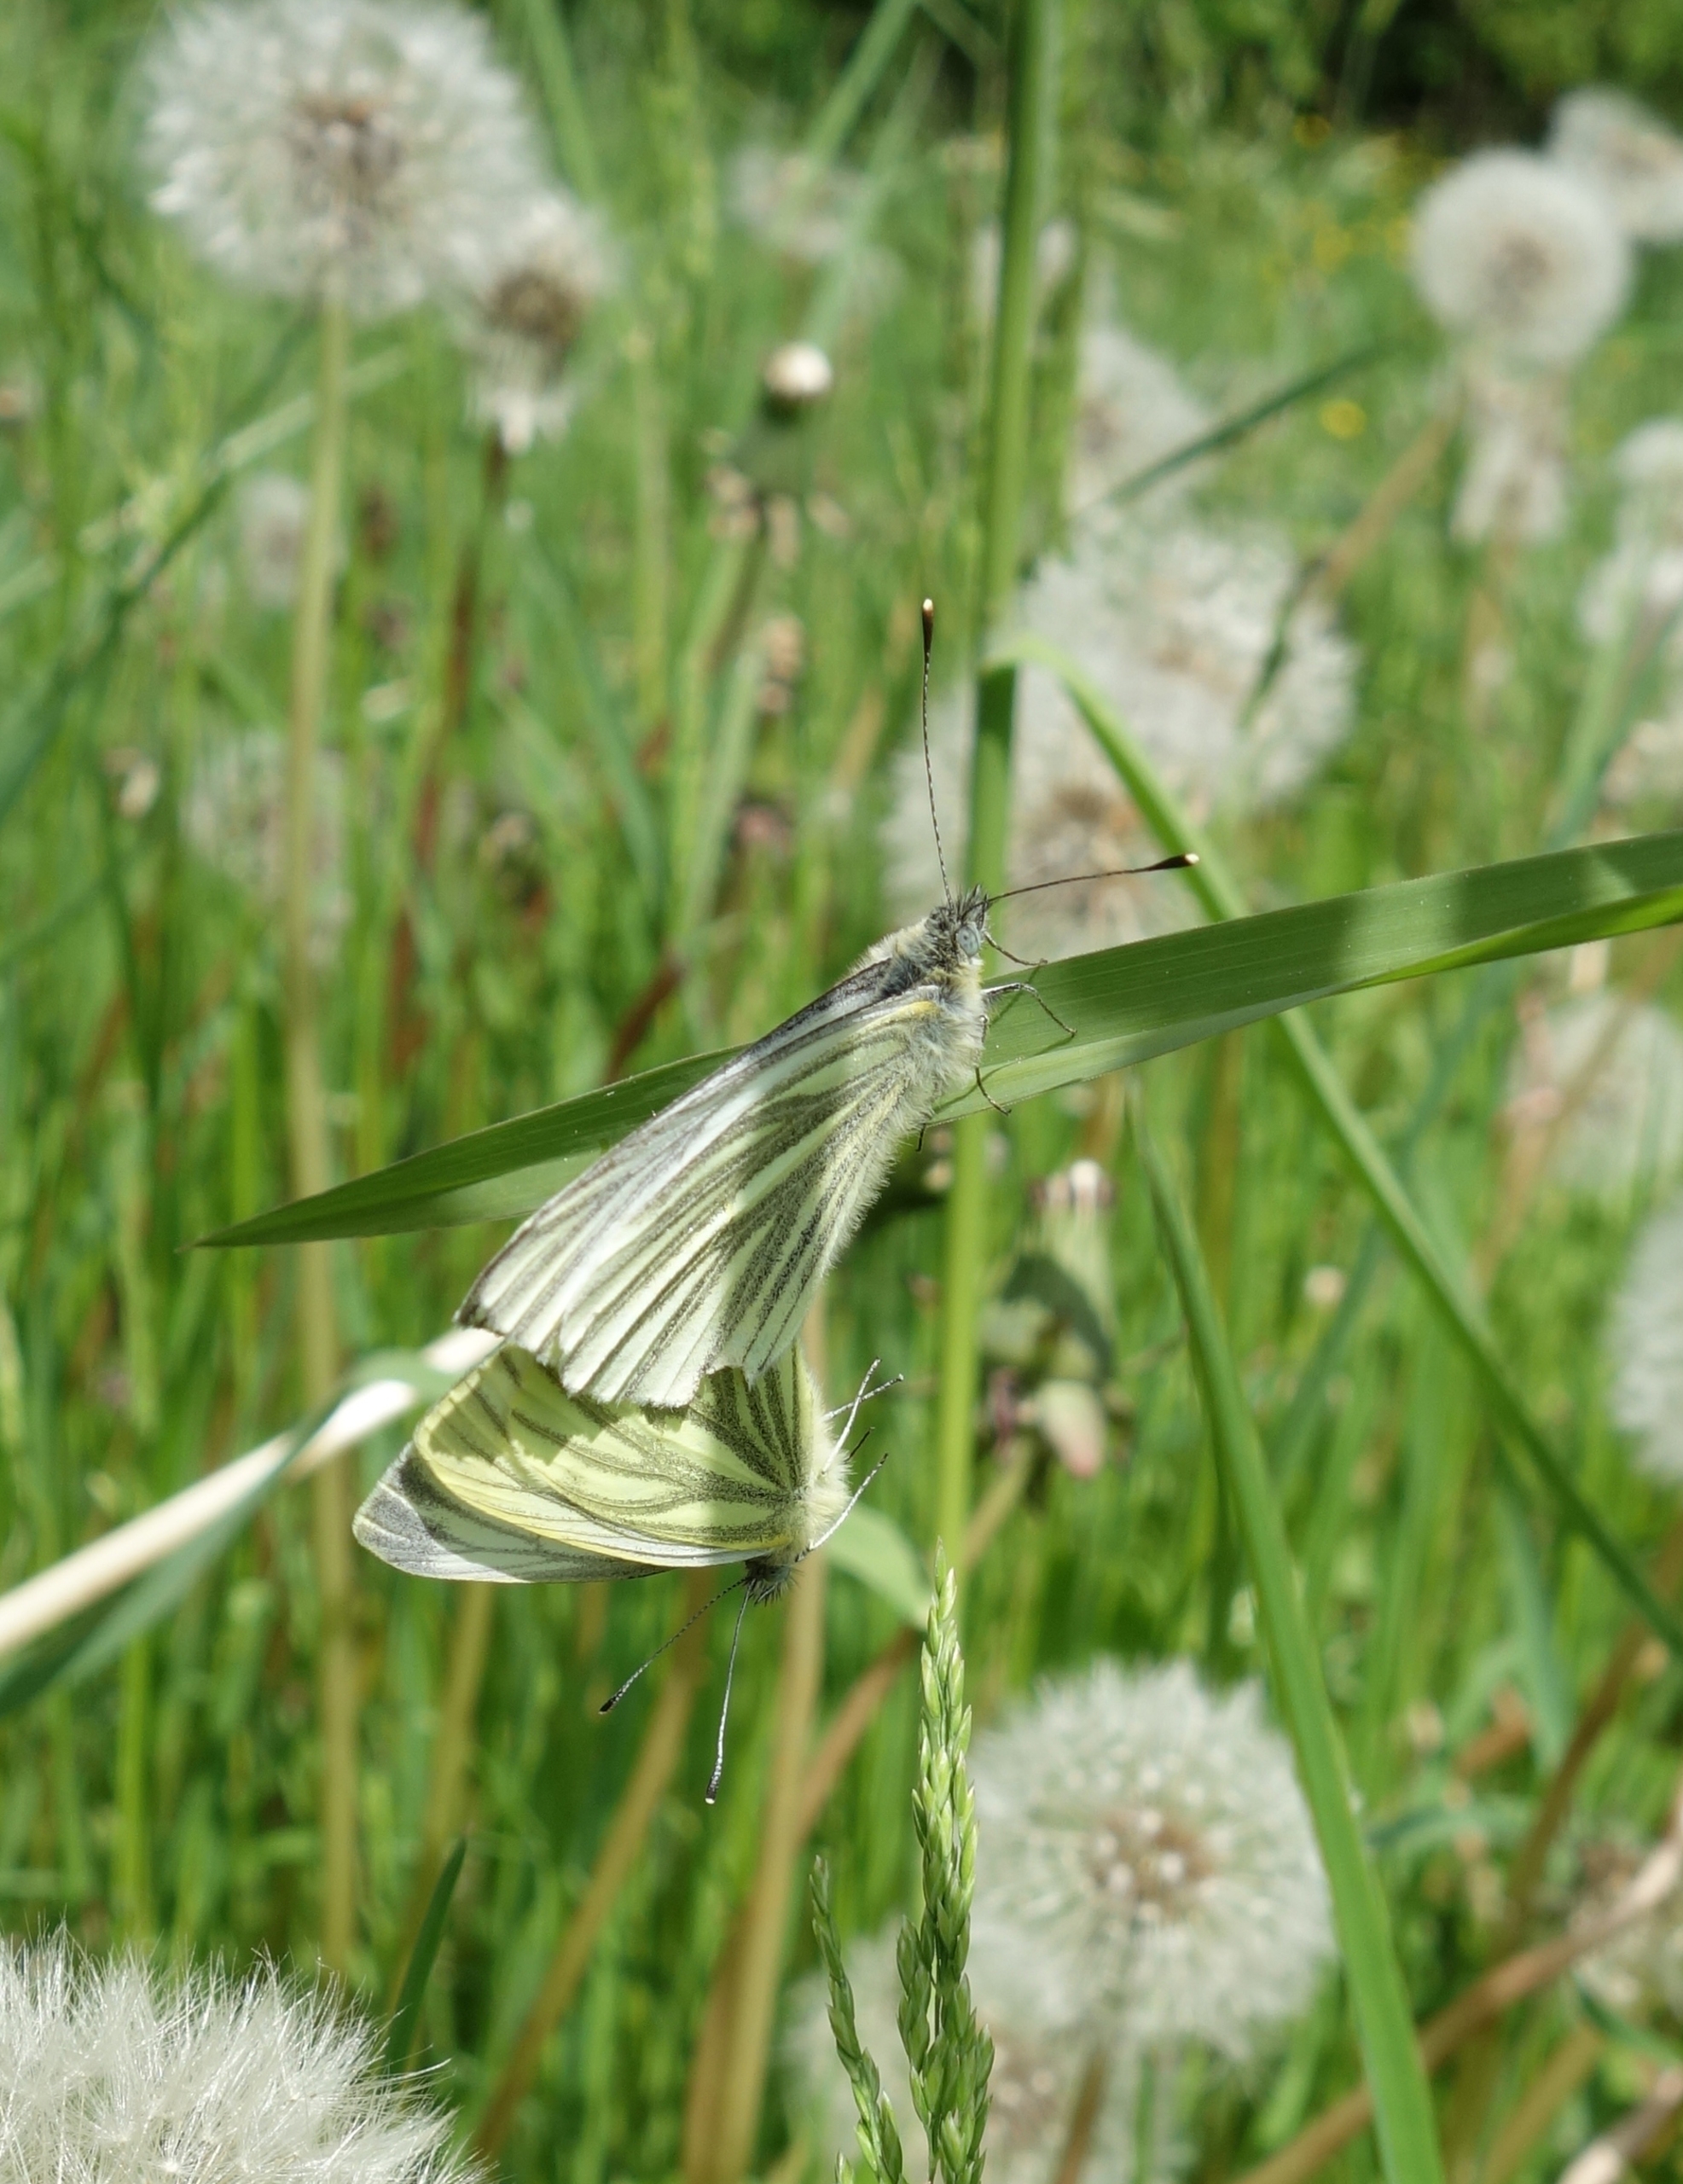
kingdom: Animalia
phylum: Arthropoda
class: Insecta
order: Lepidoptera
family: Pieridae
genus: Pieris
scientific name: Pieris napi
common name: Grønåret kålsommerfugl
